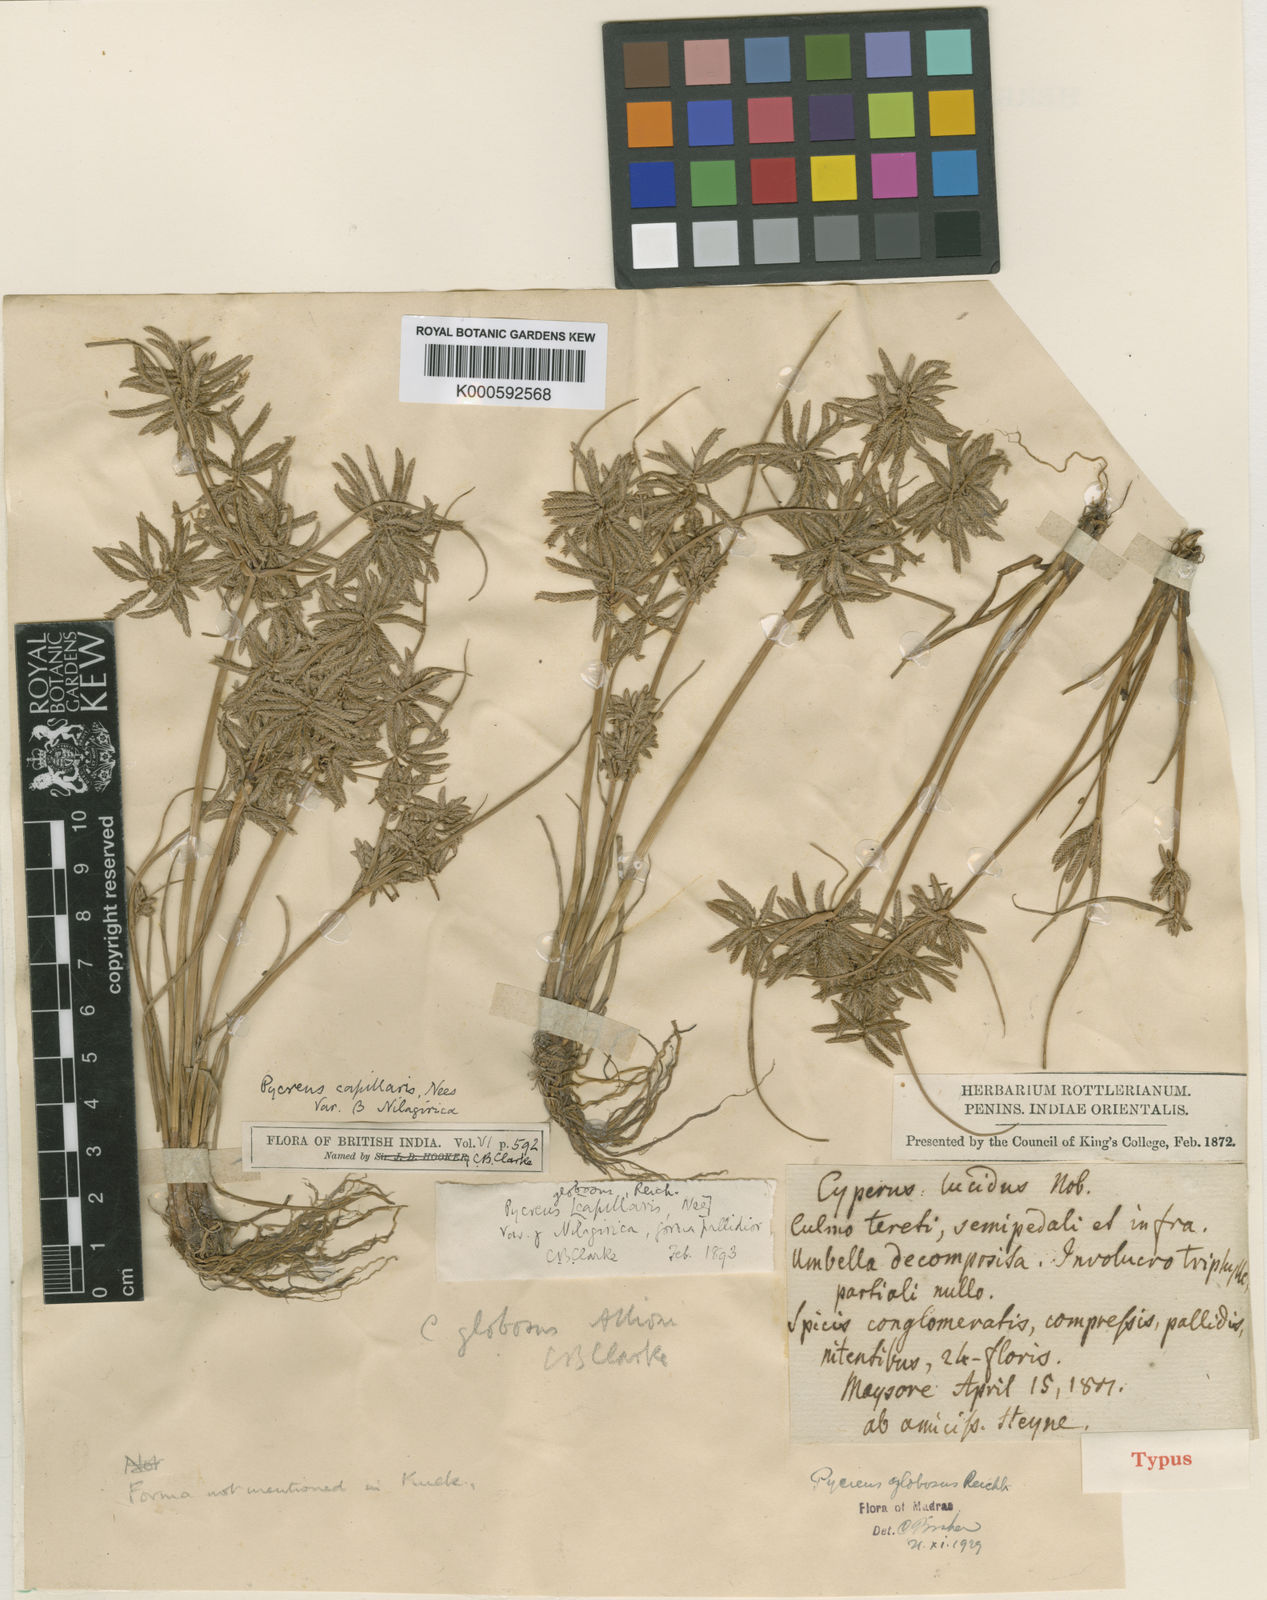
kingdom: Plantae
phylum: Tracheophyta
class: Liliopsida
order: Poales
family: Cyperaceae
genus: Cyperus
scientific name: Cyperus flavidus
